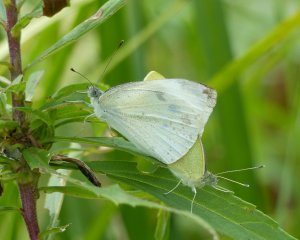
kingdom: Animalia
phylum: Arthropoda
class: Insecta
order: Lepidoptera
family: Pieridae
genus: Pieris
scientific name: Pieris rapae
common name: Cabbage White
